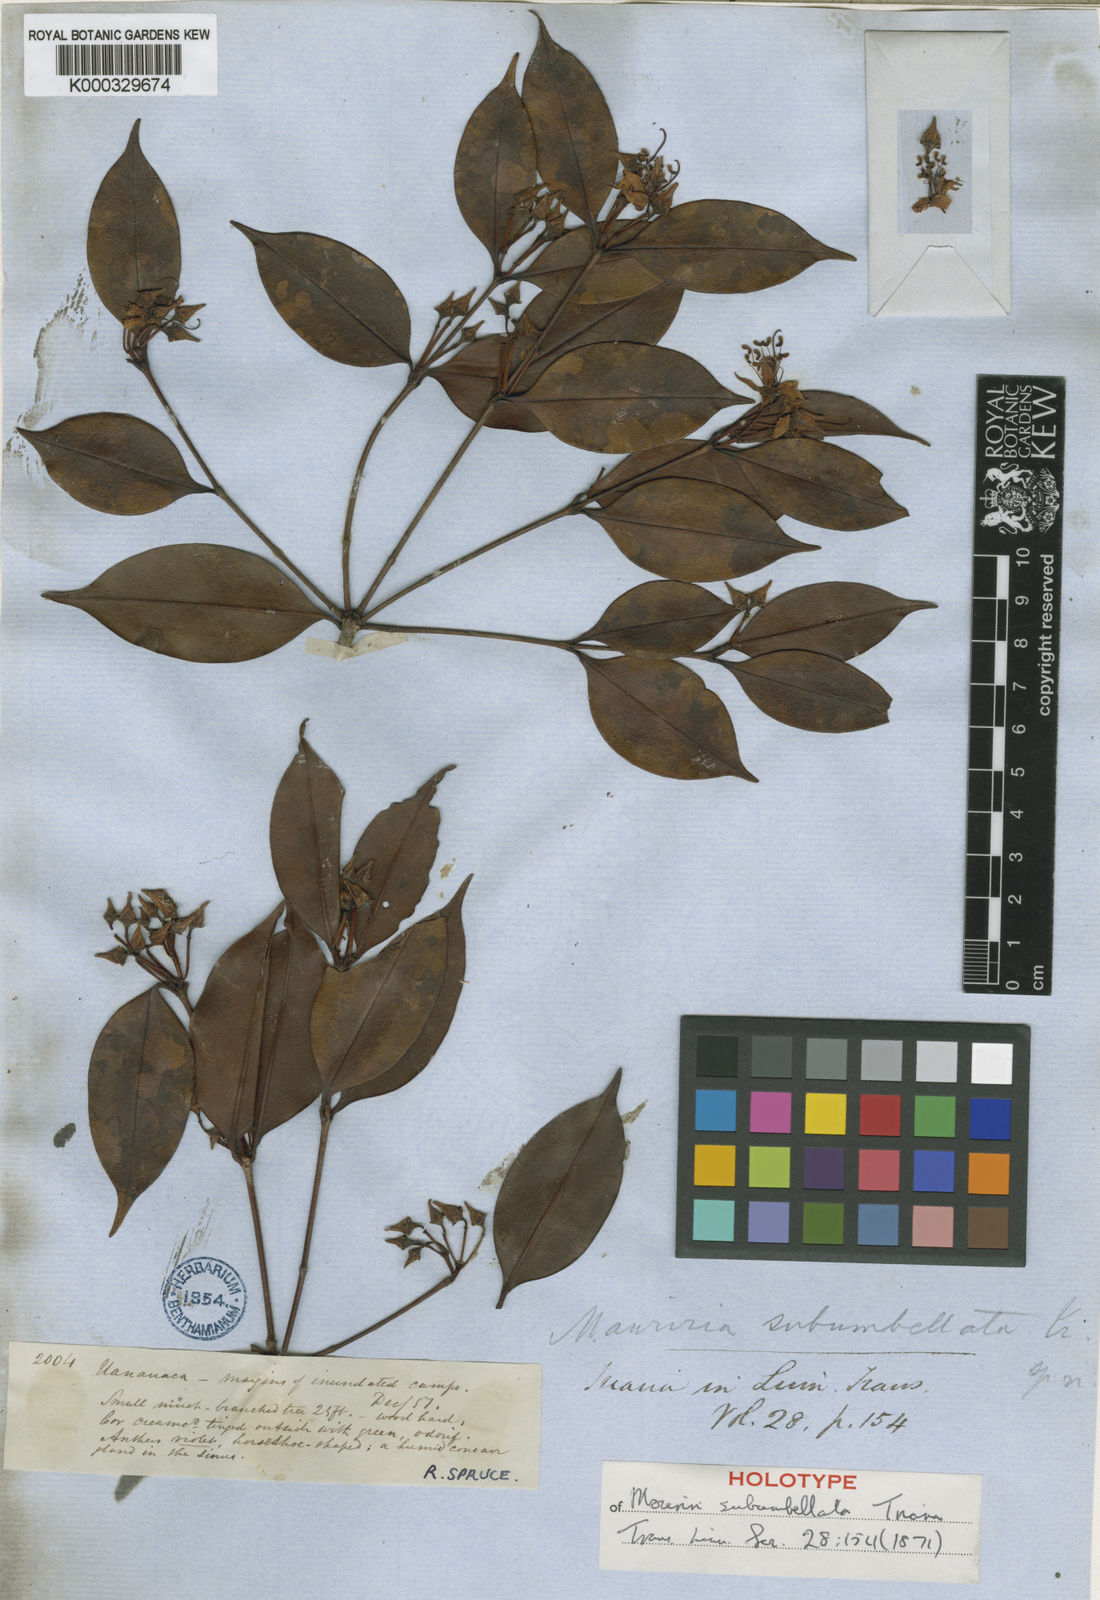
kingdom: Plantae
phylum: Tracheophyta
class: Magnoliopsida
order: Myrtales
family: Melastomataceae
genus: Mouriri
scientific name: Mouriri subumbellata
